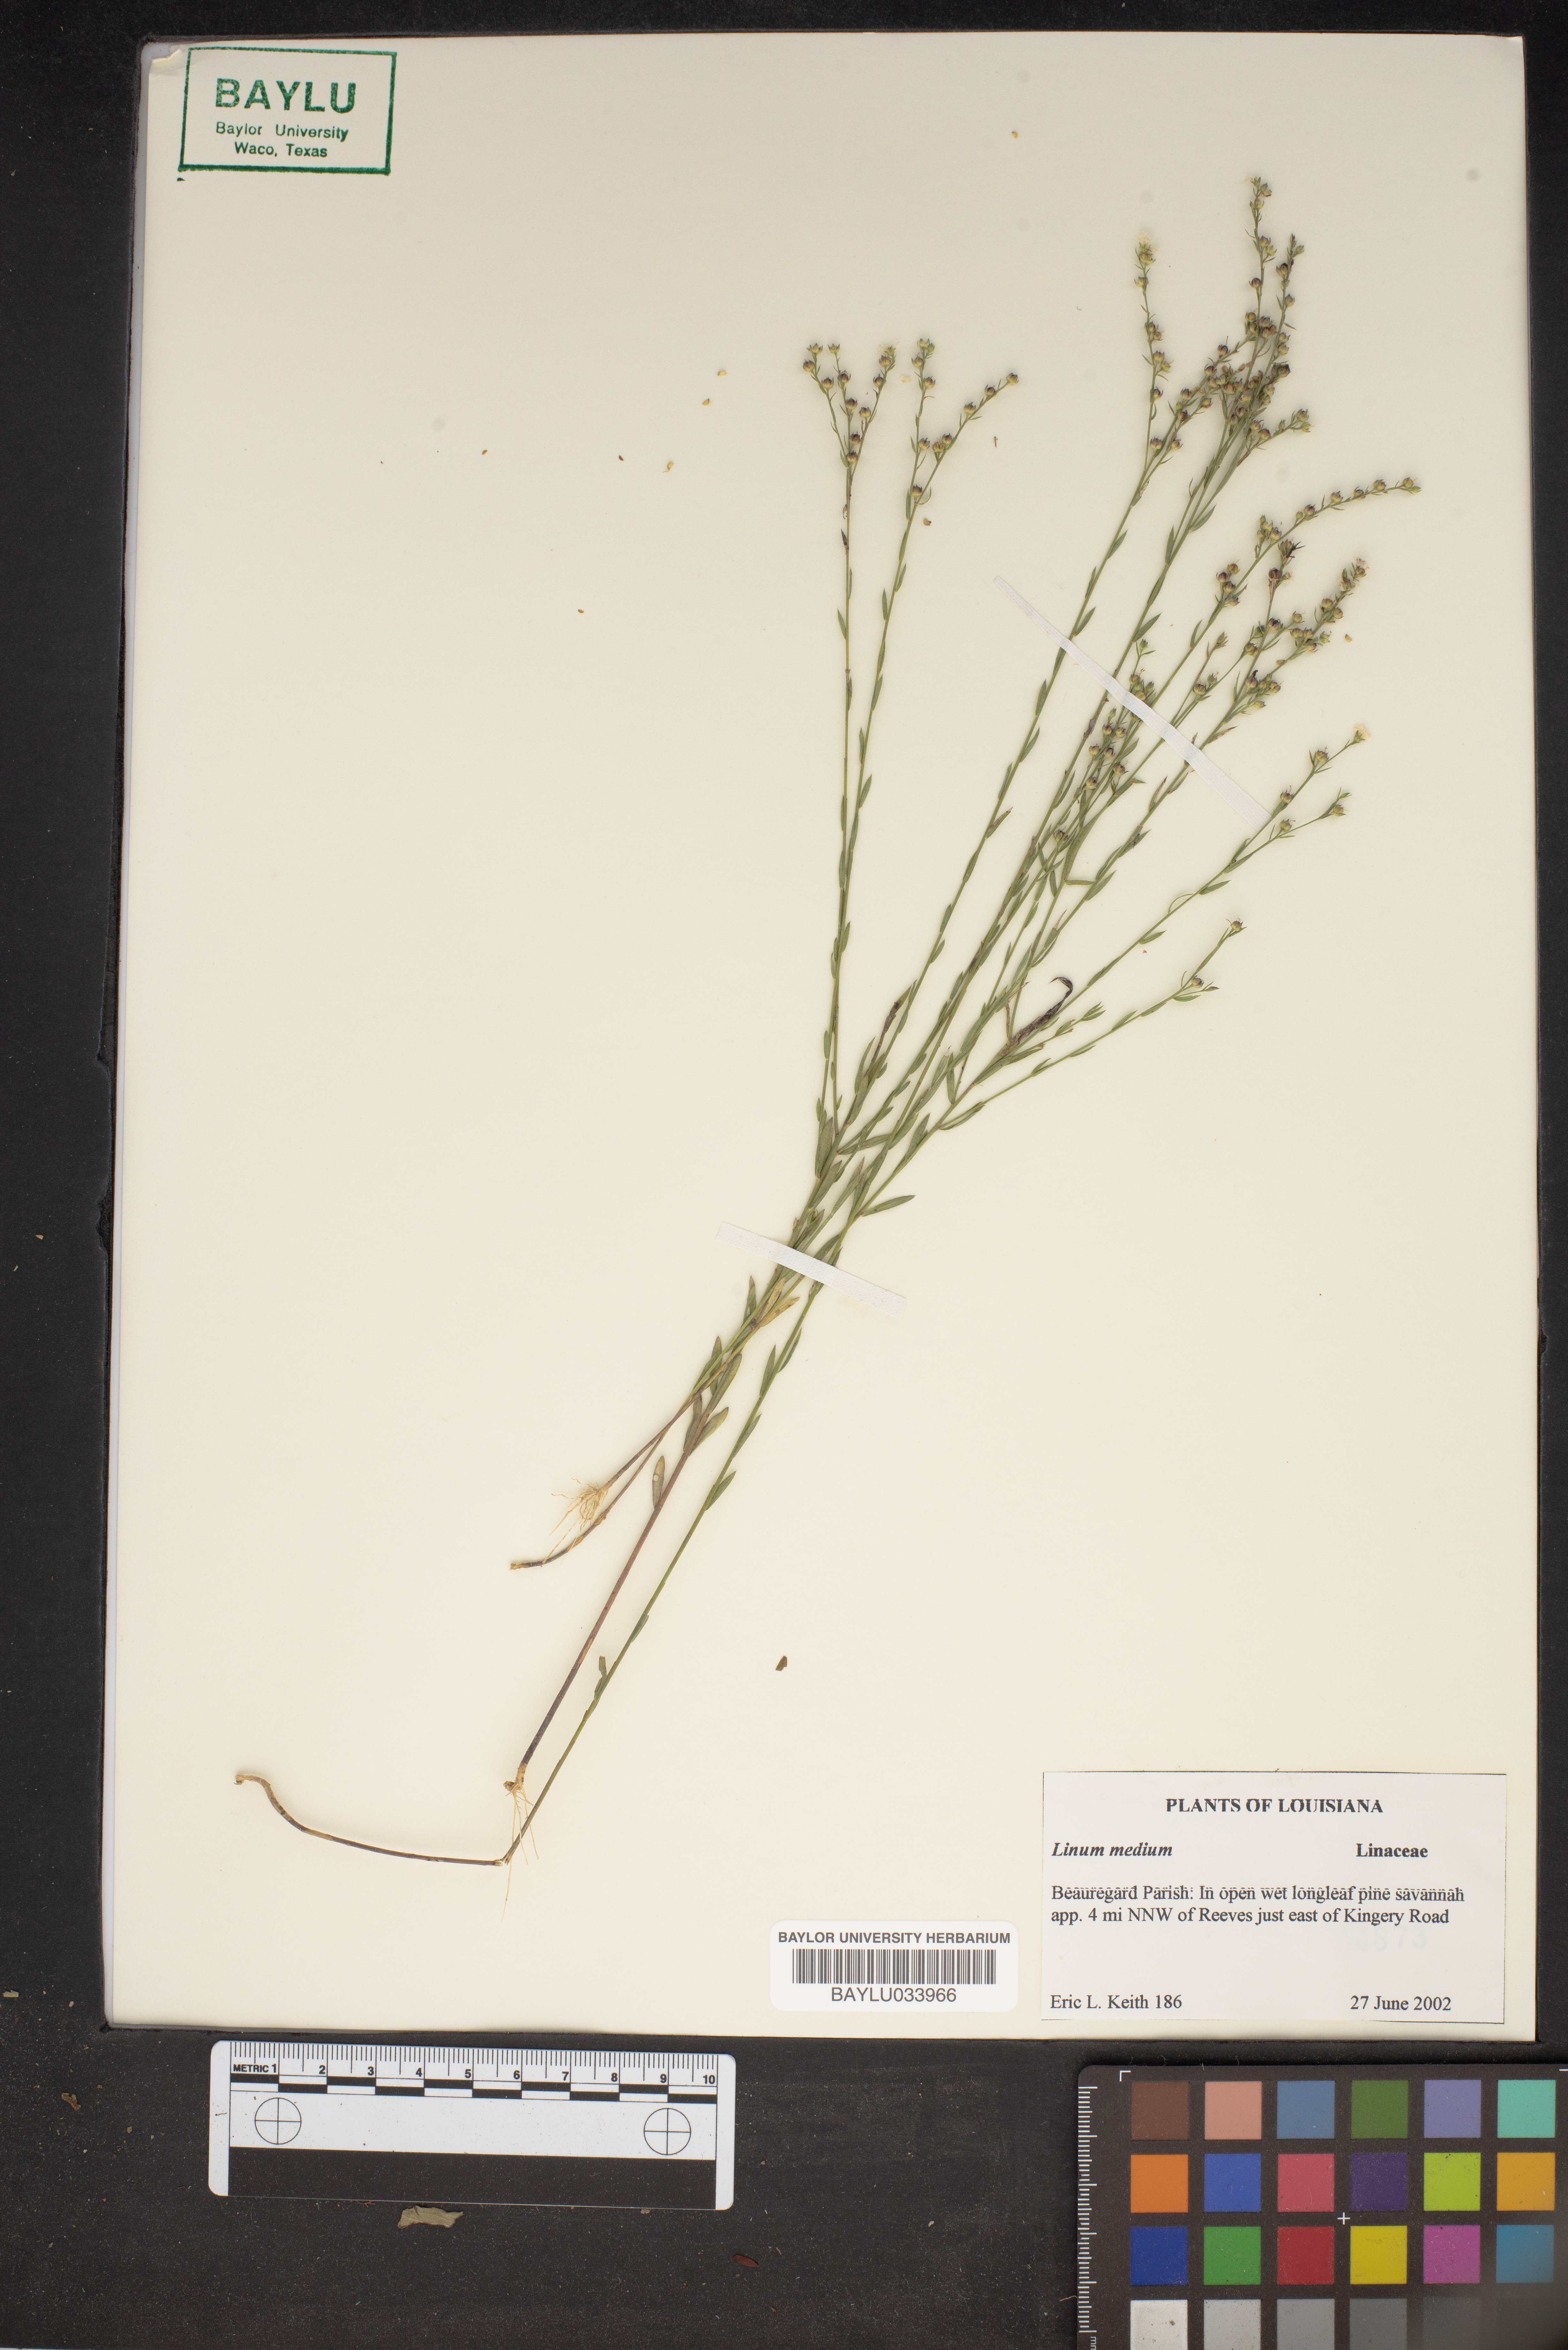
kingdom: Plantae
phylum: Tracheophyta
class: Magnoliopsida
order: Malpighiales
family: Linaceae
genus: Linum
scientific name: Linum medium
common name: Stiff yellow flax
